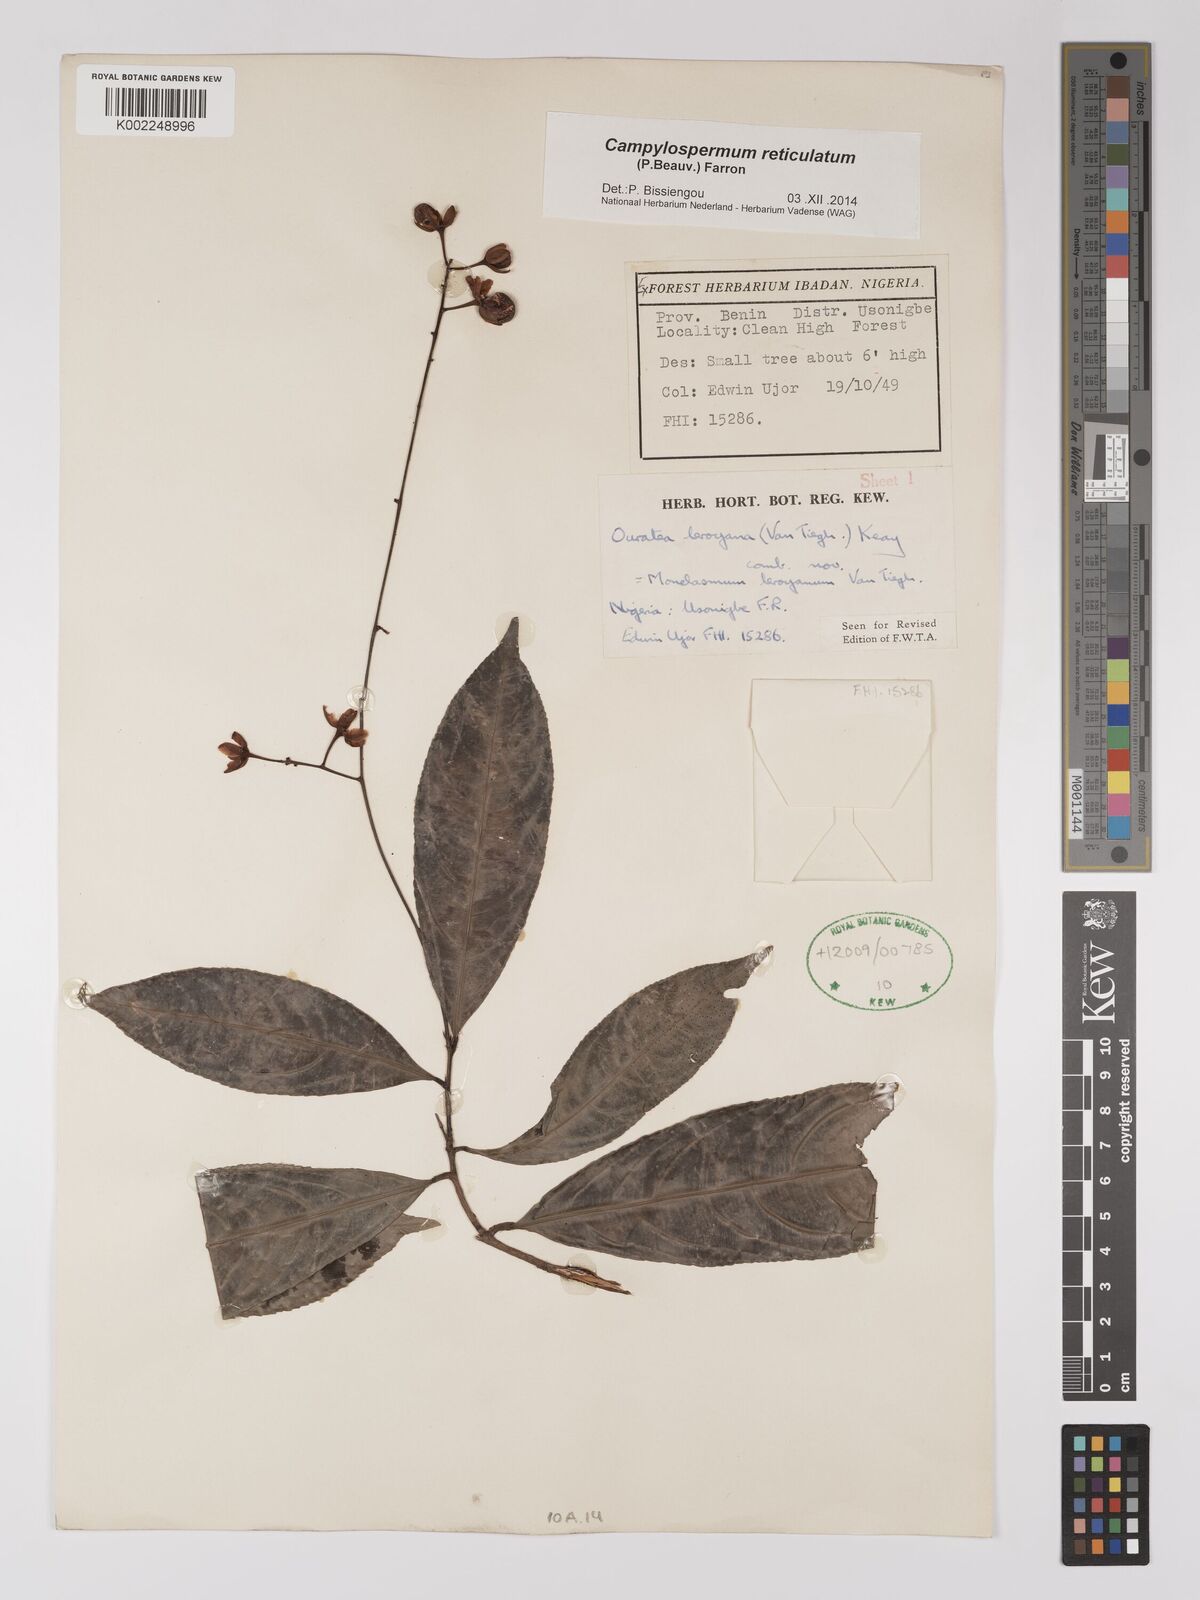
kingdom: Plantae
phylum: Tracheophyta
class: Magnoliopsida
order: Malpighiales
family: Ochnaceae
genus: Campylospermum
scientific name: Campylospermum reticulatum
